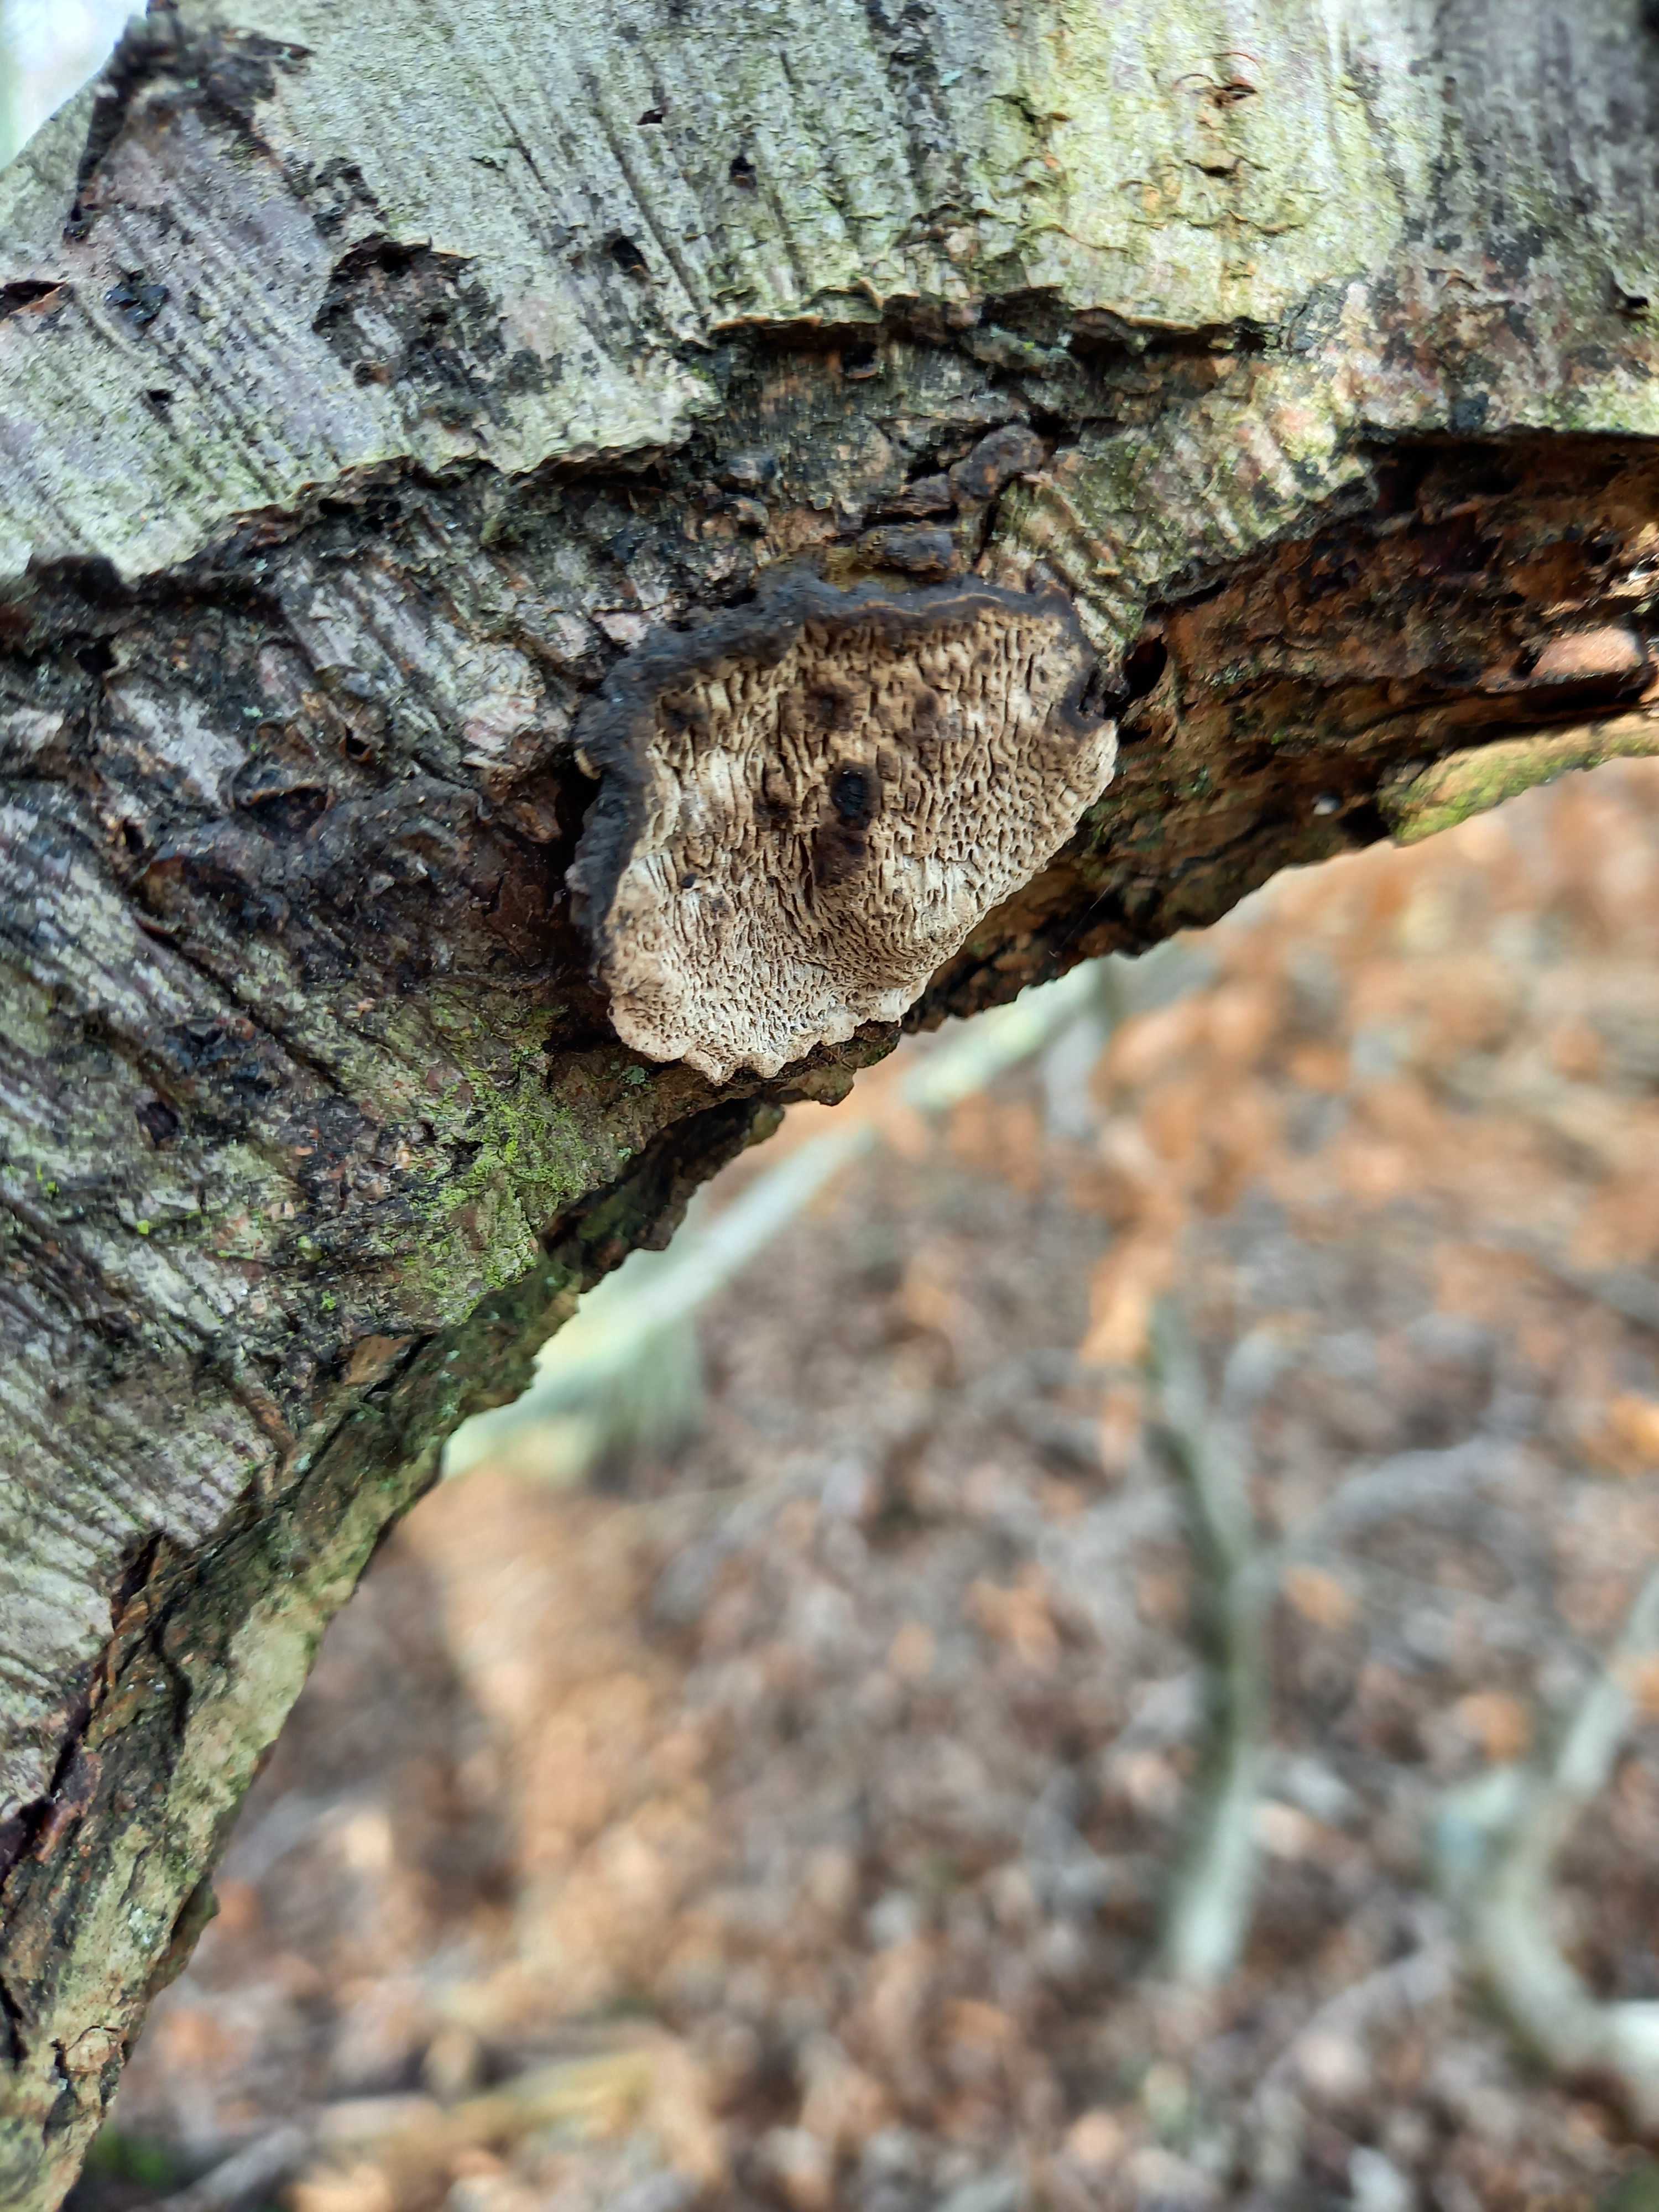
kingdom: Fungi
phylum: Basidiomycota
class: Agaricomycetes
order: Polyporales
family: Polyporaceae
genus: Podofomes
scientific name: Podofomes mollis
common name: blød begporesvamp
